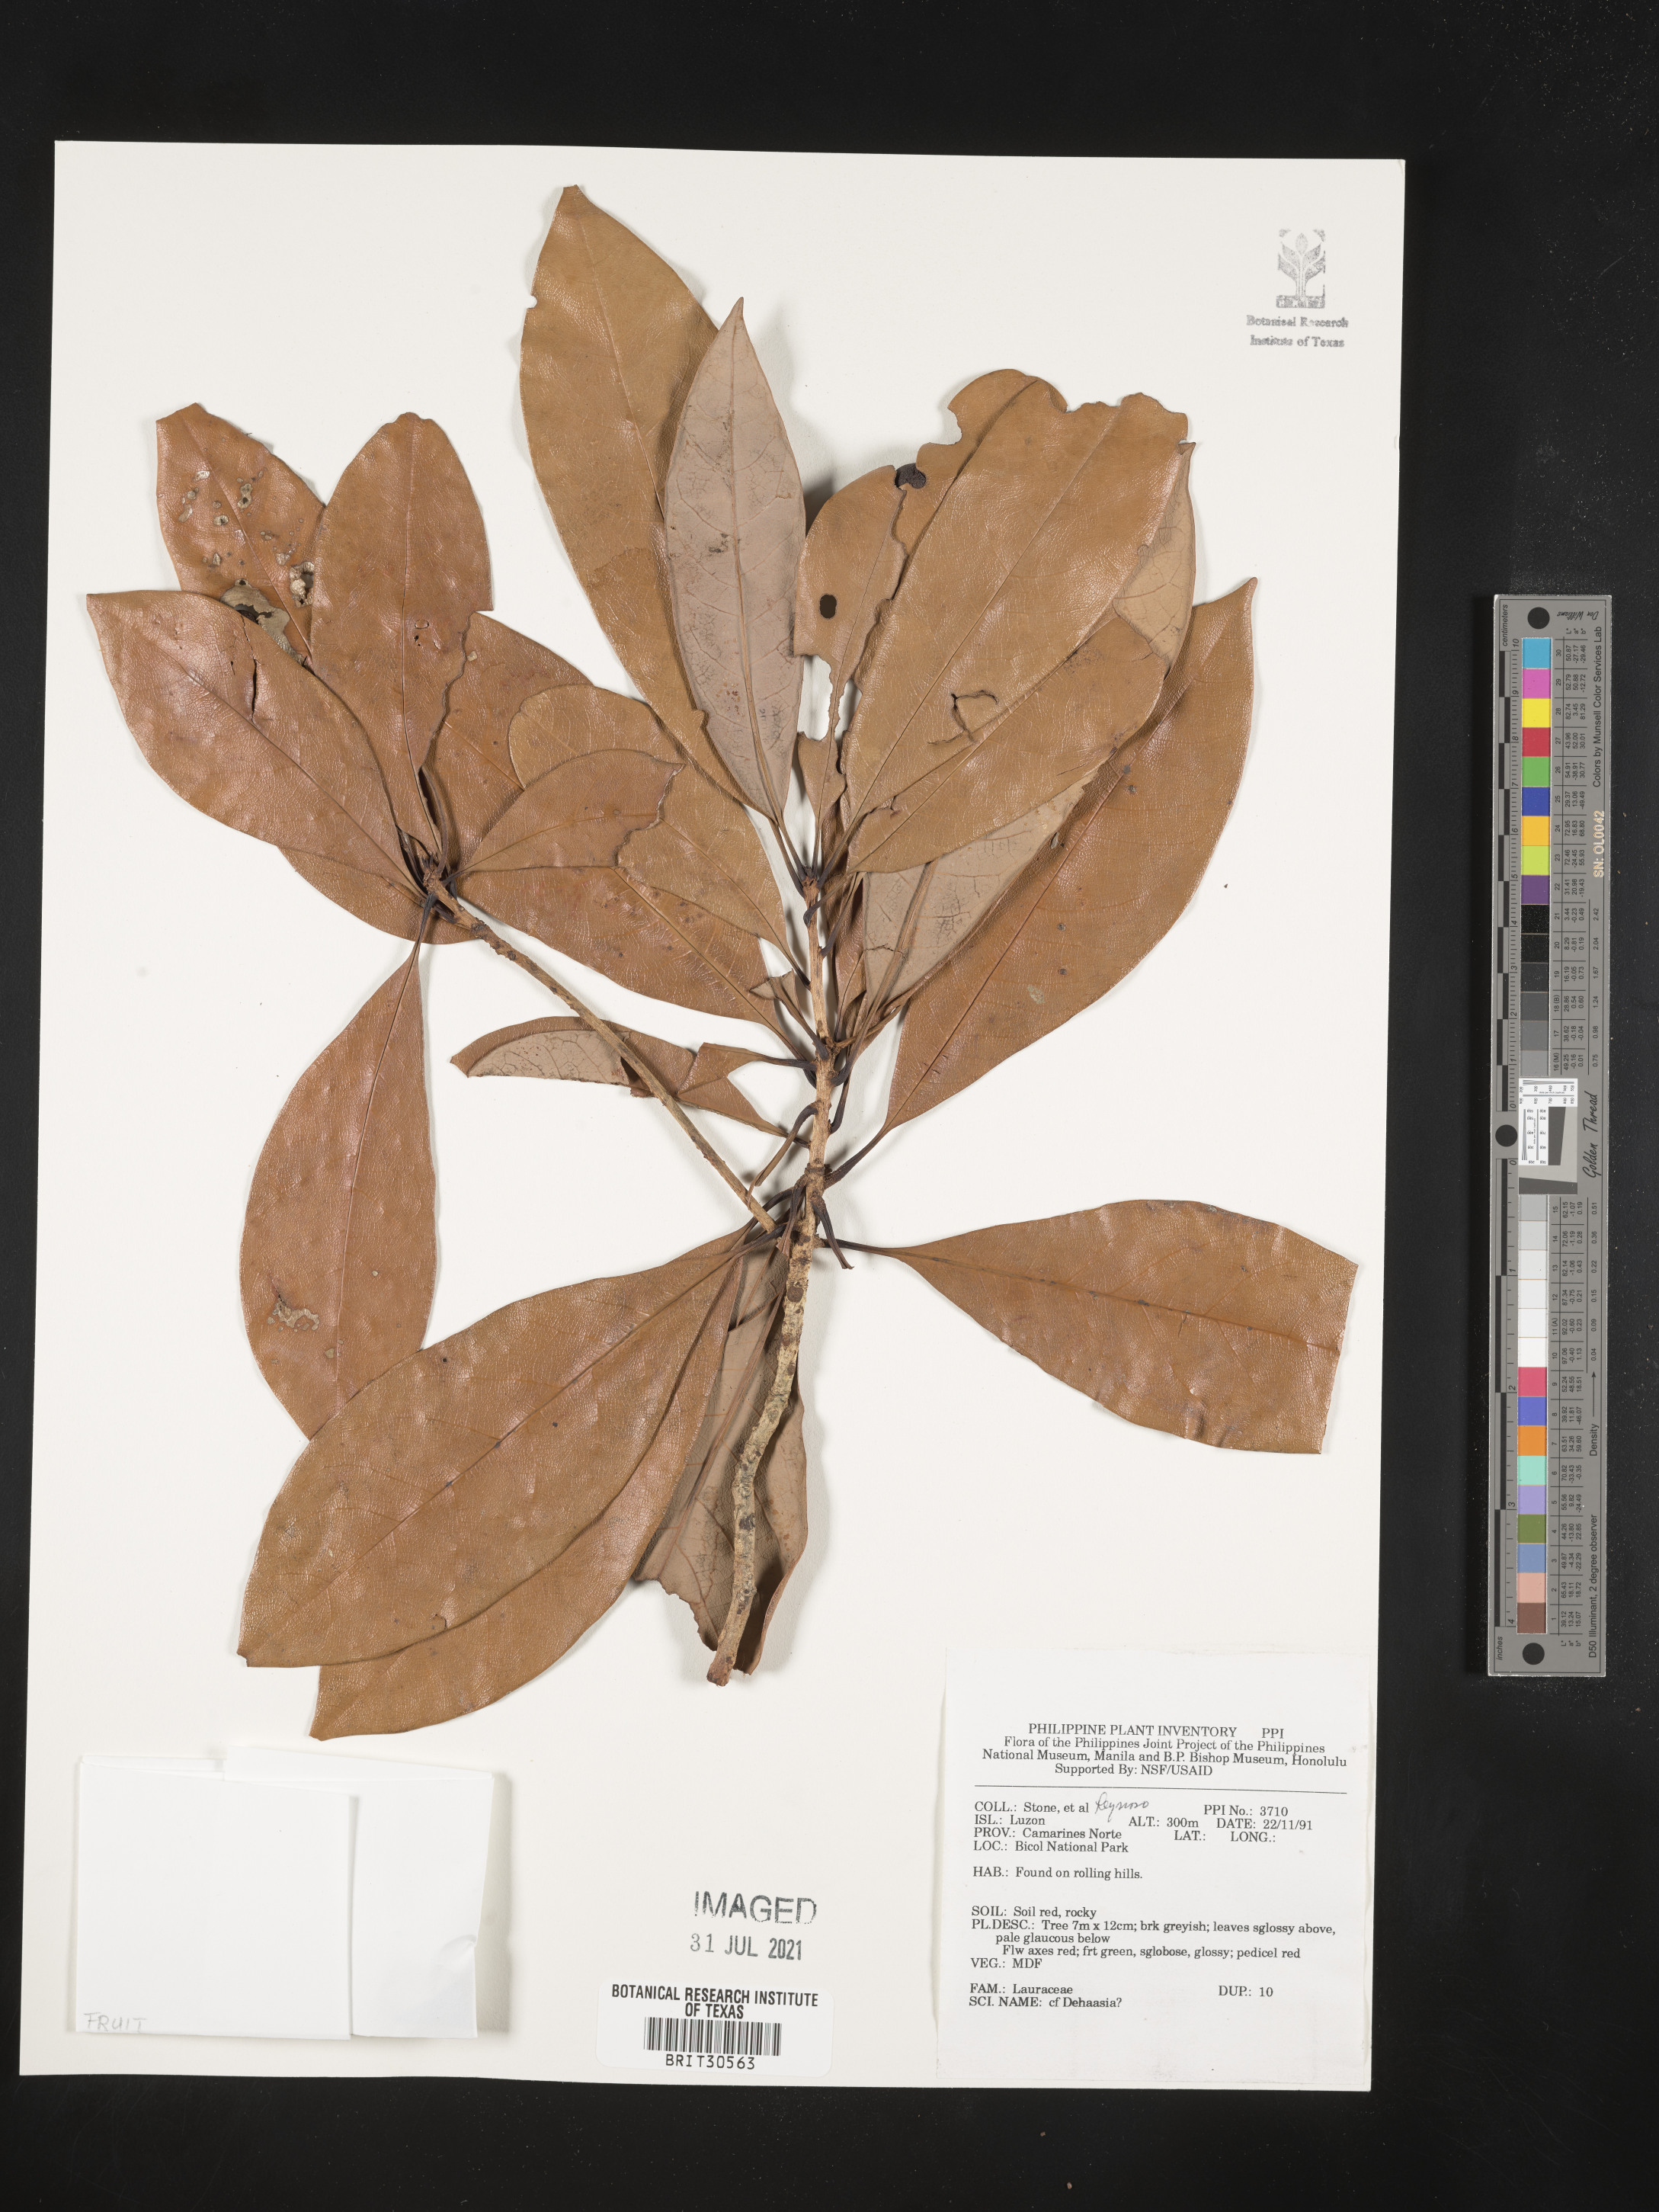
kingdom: Plantae
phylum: Tracheophyta
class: Magnoliopsida
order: Laurales
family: Lauraceae
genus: Dehaasia
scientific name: Dehaasia
